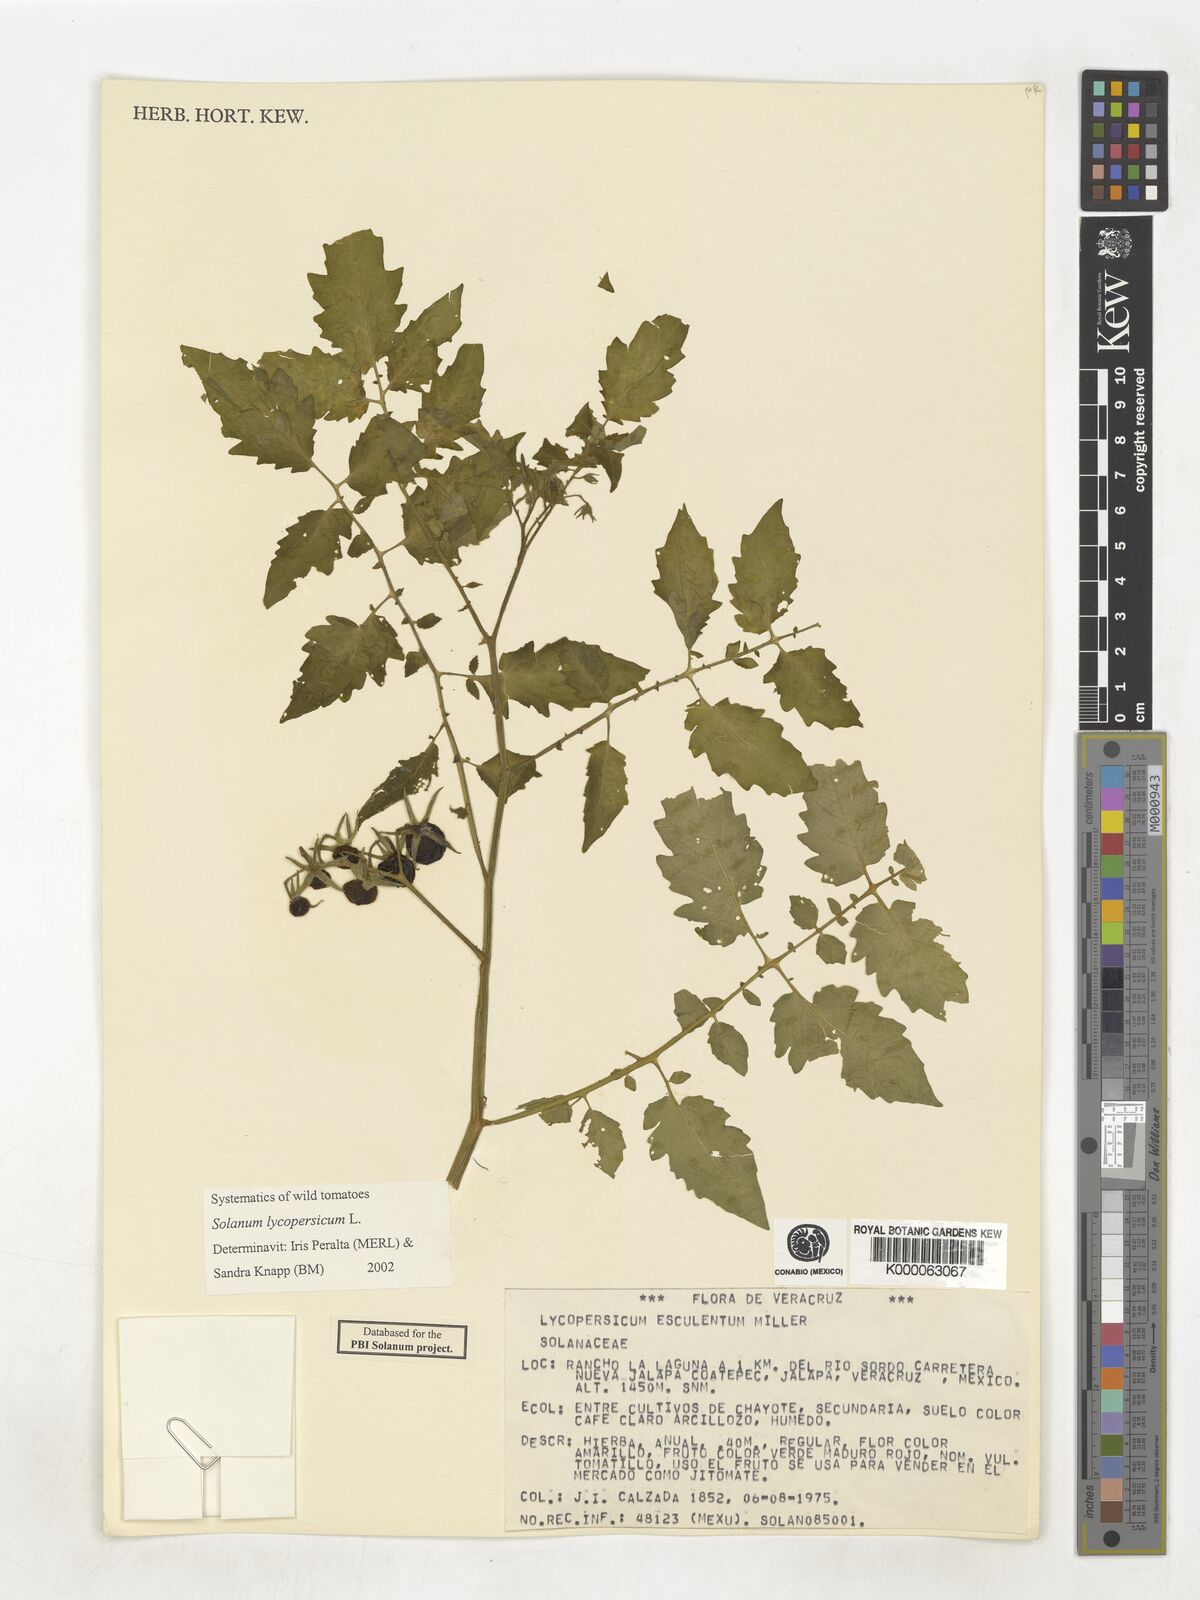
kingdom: Plantae
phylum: Tracheophyta
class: Magnoliopsida
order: Solanales
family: Solanaceae
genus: Lycopersicon
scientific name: Lycopersicon
